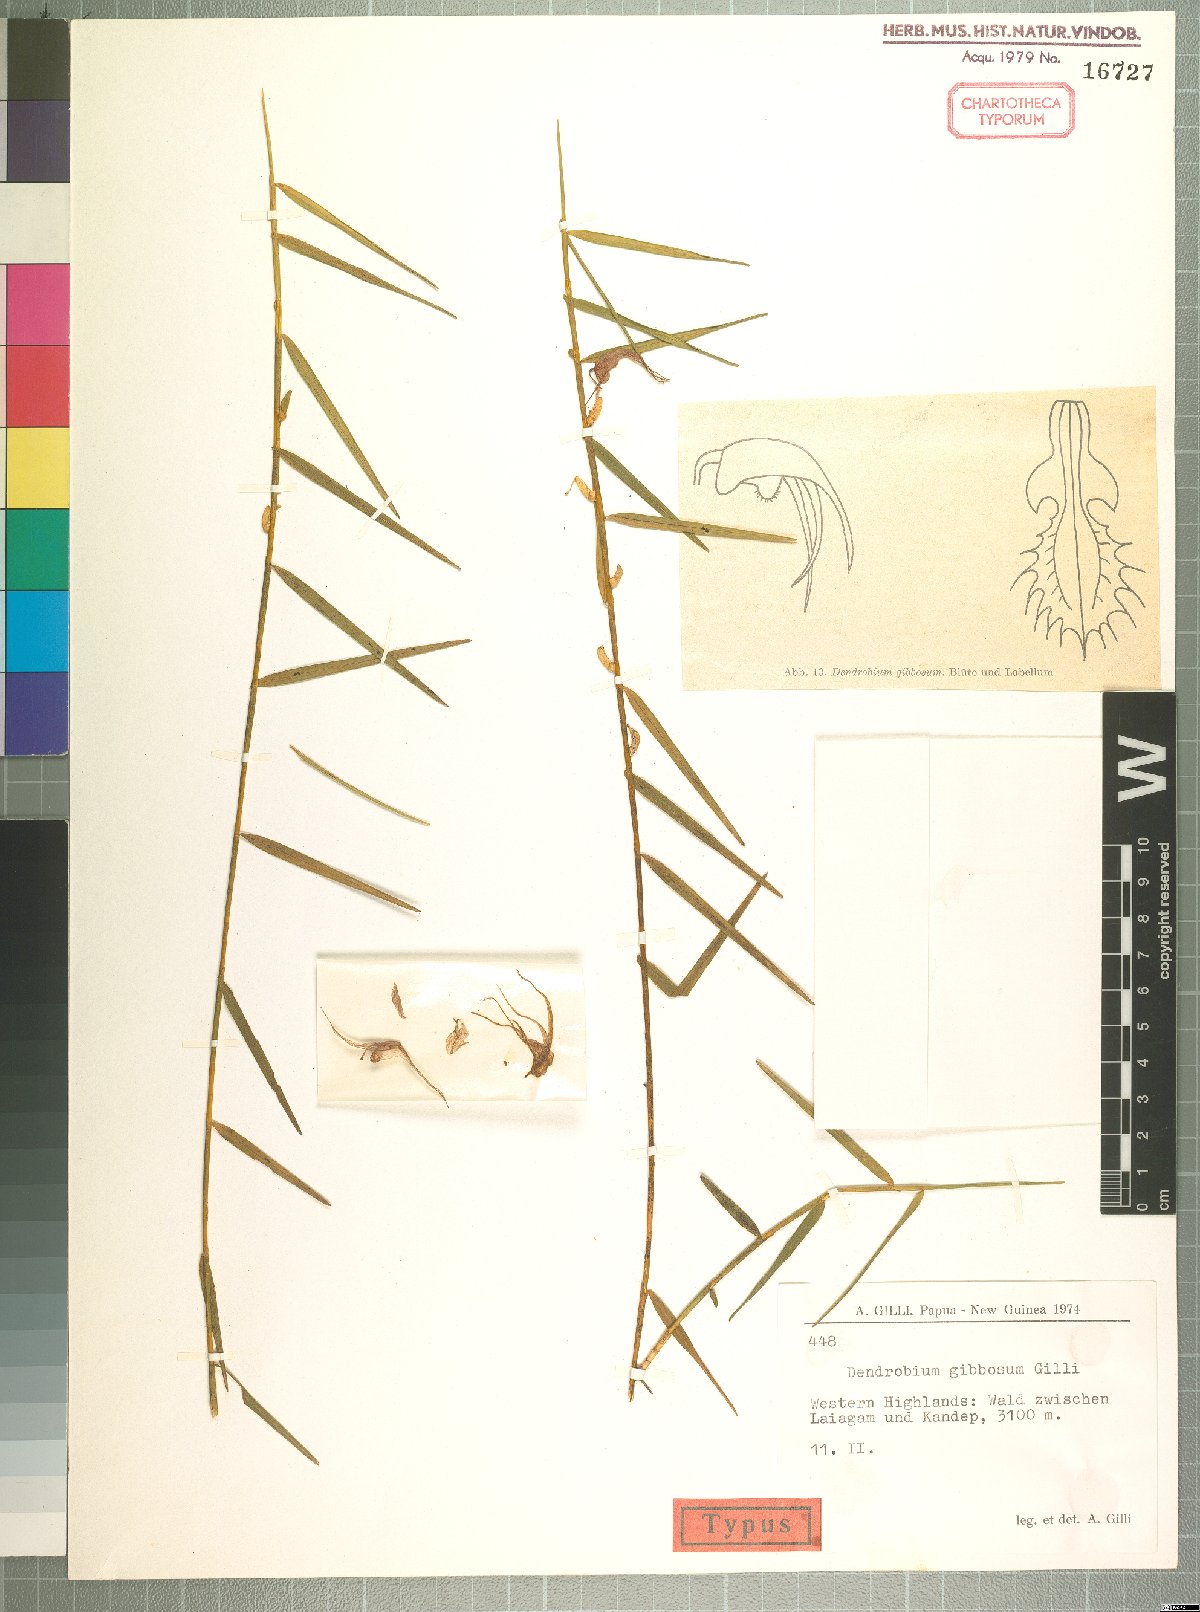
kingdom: Plantae
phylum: Tracheophyta
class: Liliopsida
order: Asparagales
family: Orchidaceae
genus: Dendrobium
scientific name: Dendrobium gibbosum
